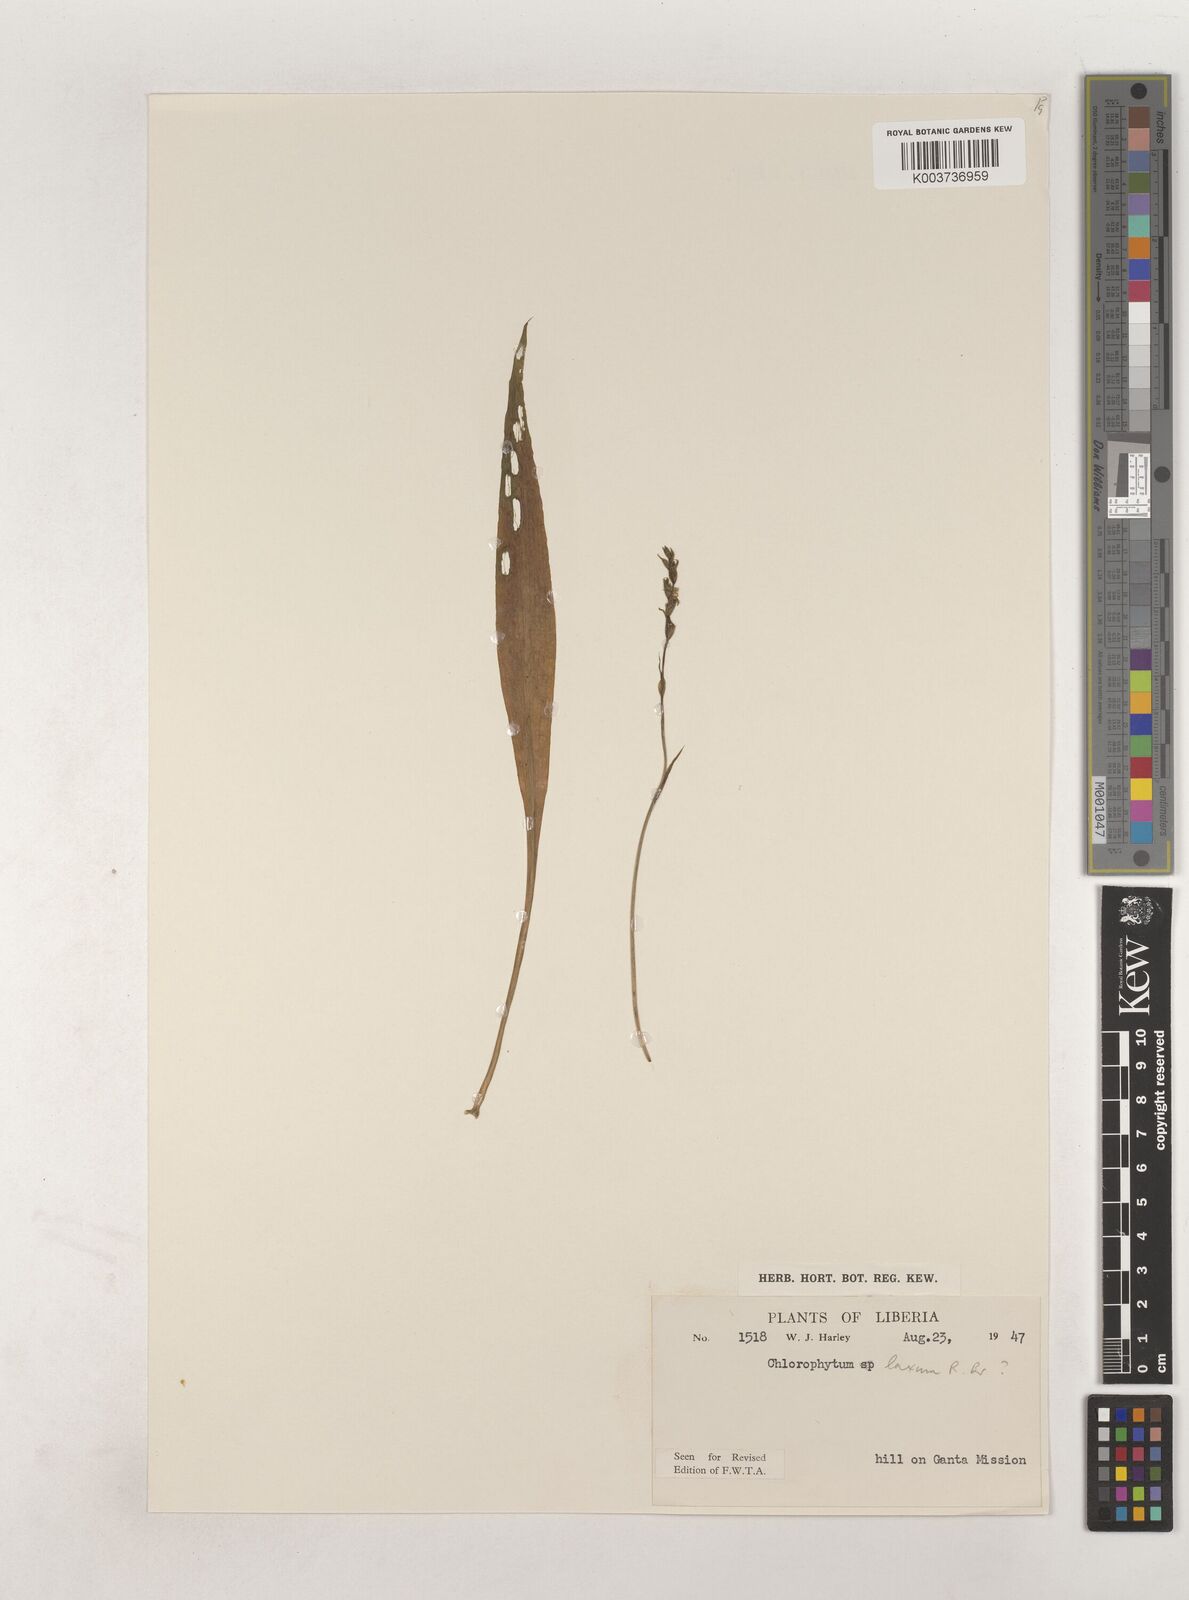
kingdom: Plantae
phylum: Tracheophyta
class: Liliopsida
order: Asparagales
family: Asparagaceae
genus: Chlorophytum
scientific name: Chlorophytum laxum
